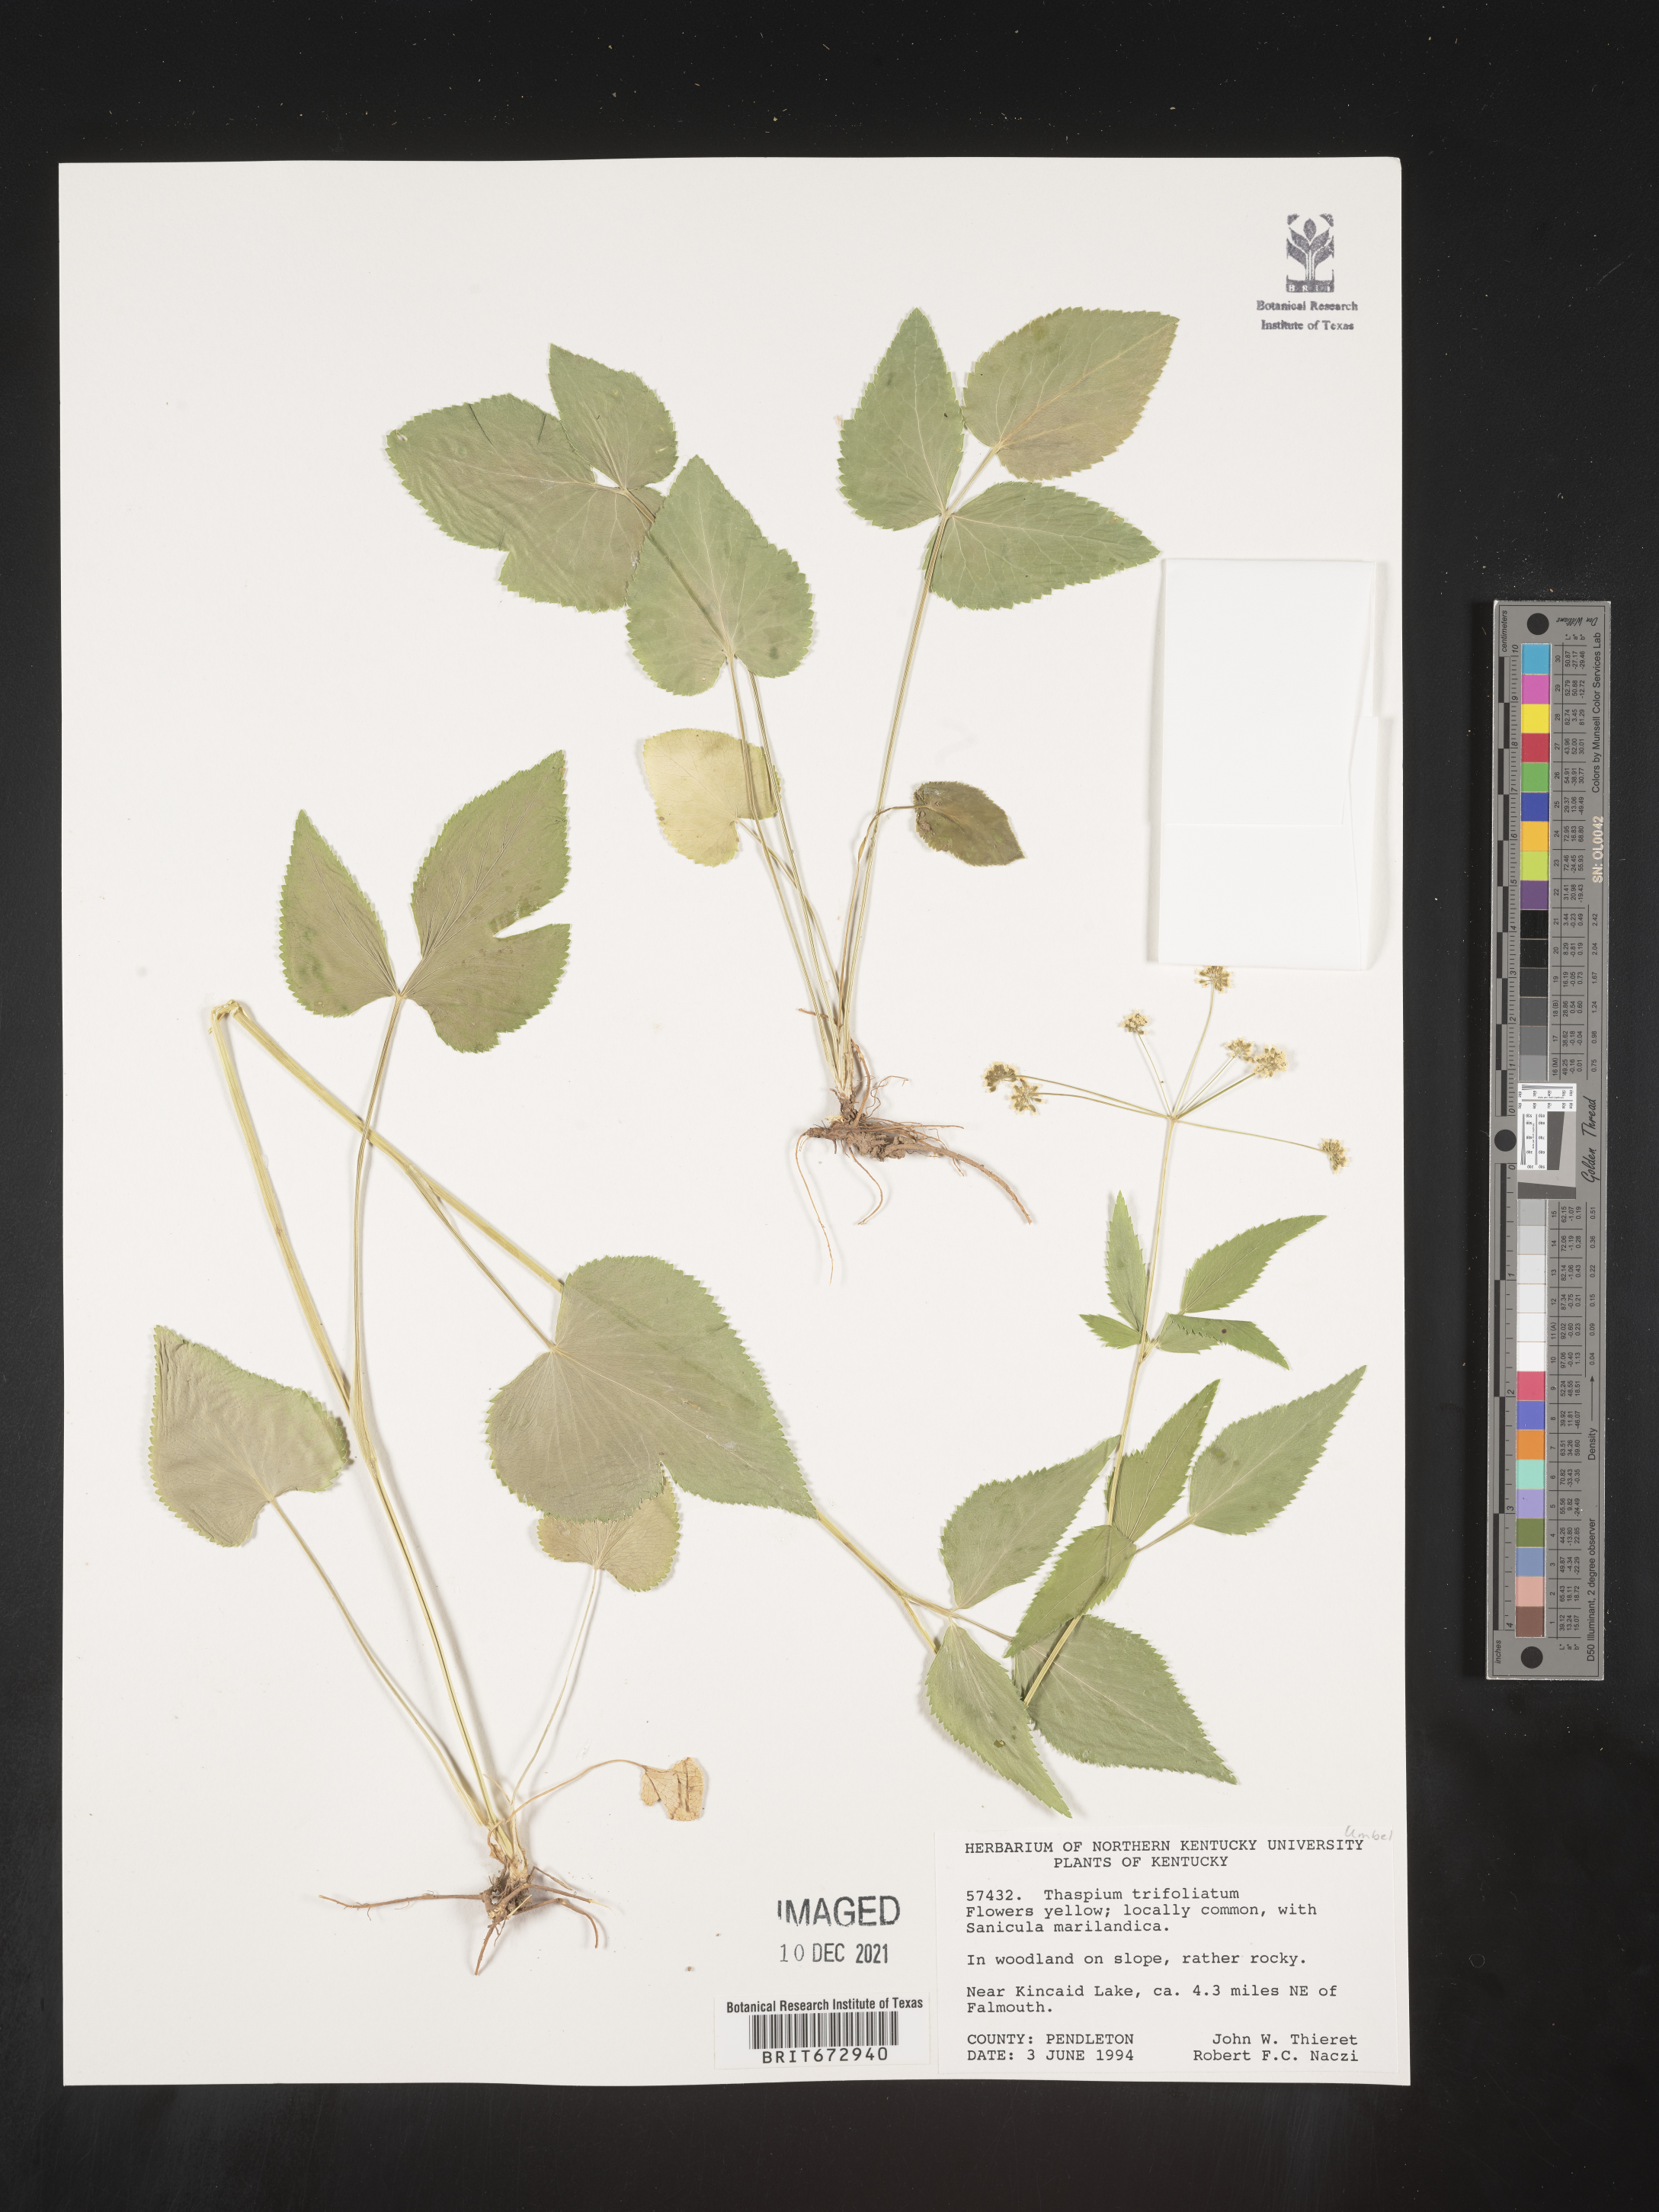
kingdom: Plantae
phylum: Tracheophyta
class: Magnoliopsida
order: Apiales
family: Apiaceae
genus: Thaspium
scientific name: Thaspium
